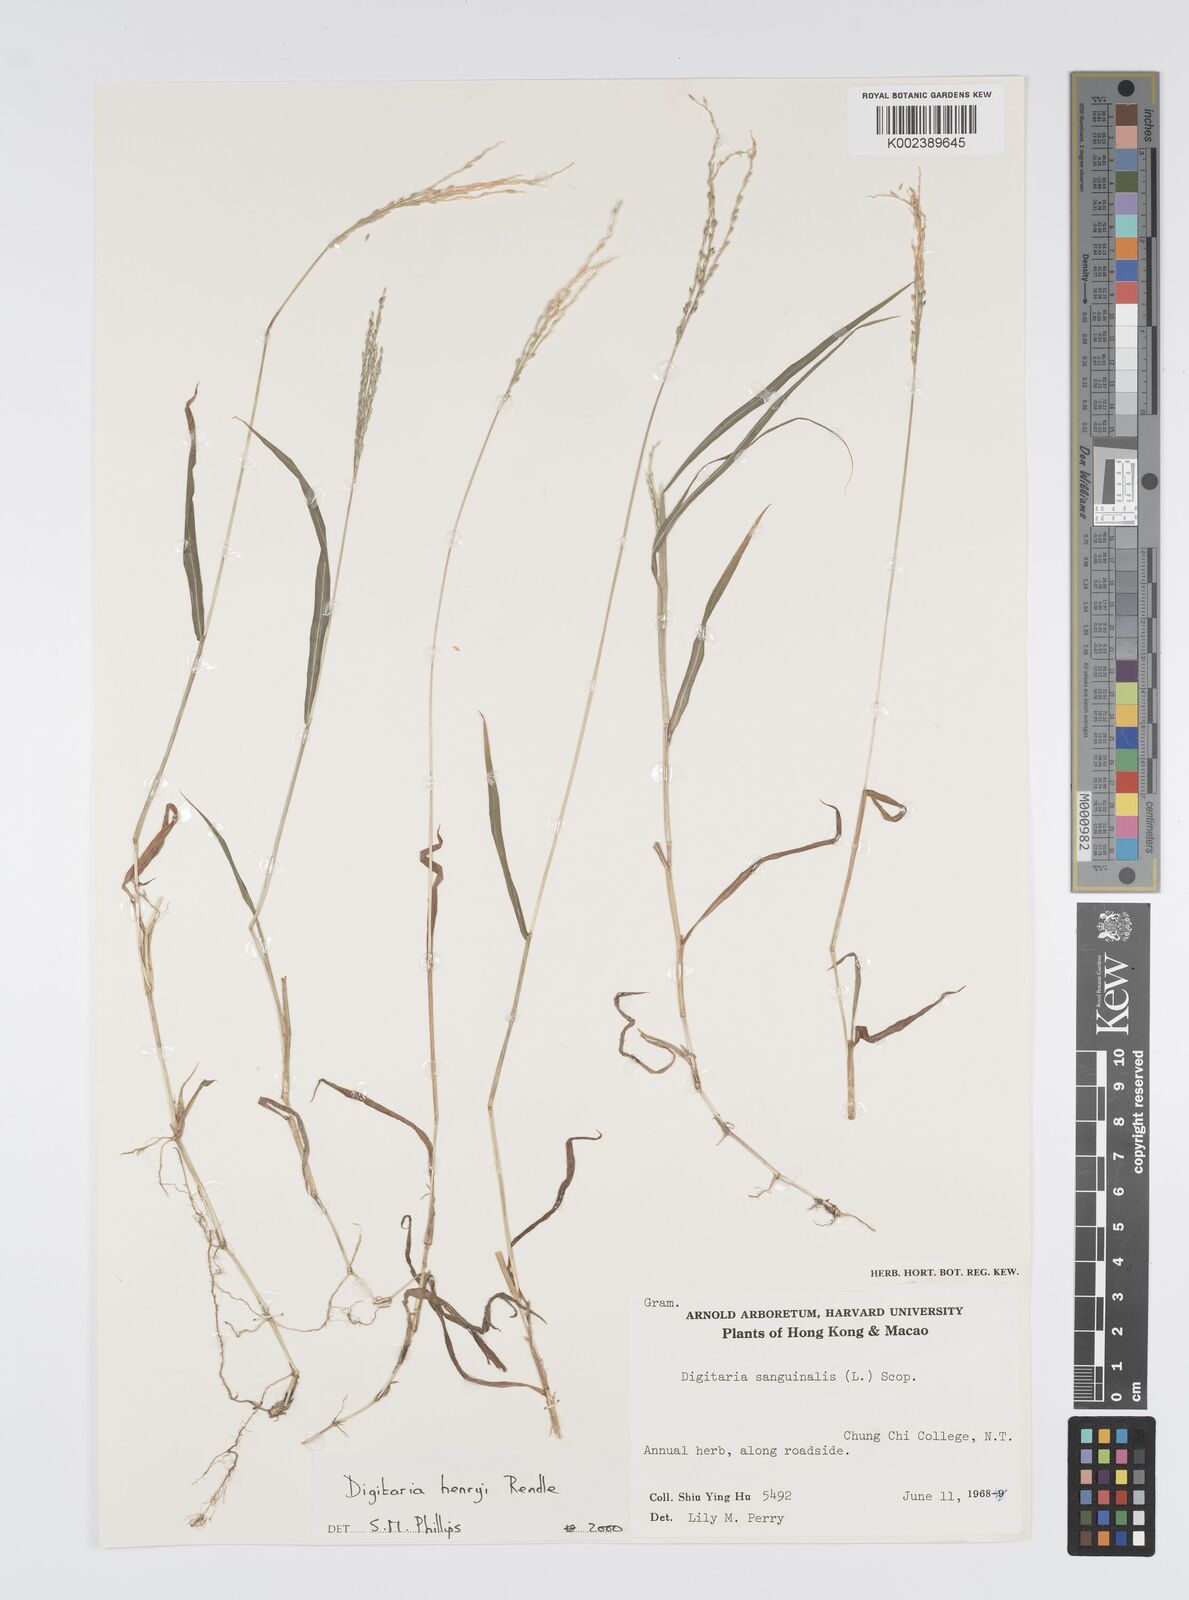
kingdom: Plantae
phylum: Tracheophyta
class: Liliopsida
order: Poales
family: Poaceae
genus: Digitaria
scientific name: Digitaria ciliaris
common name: Tropical finger-grass
